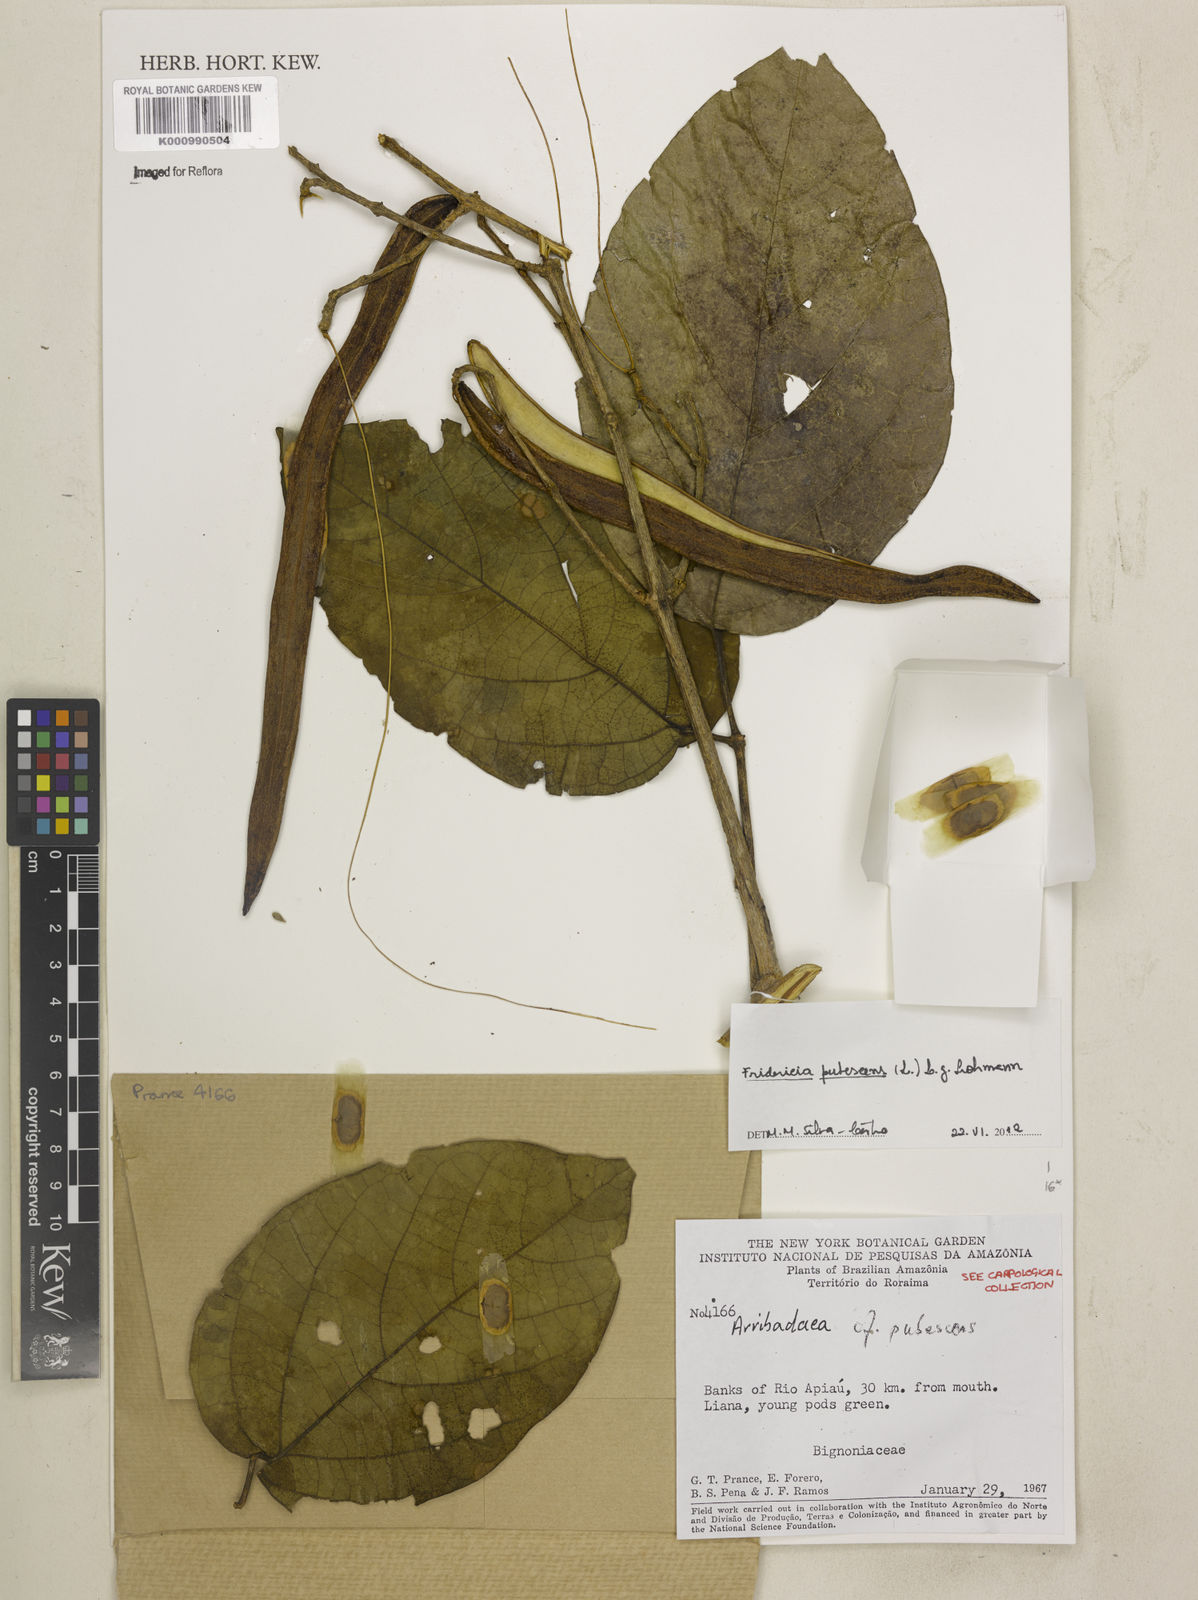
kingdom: Plantae
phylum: Tracheophyta
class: Magnoliopsida
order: Lamiales
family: Bignoniaceae
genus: Fridericia
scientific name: Fridericia pubescens
